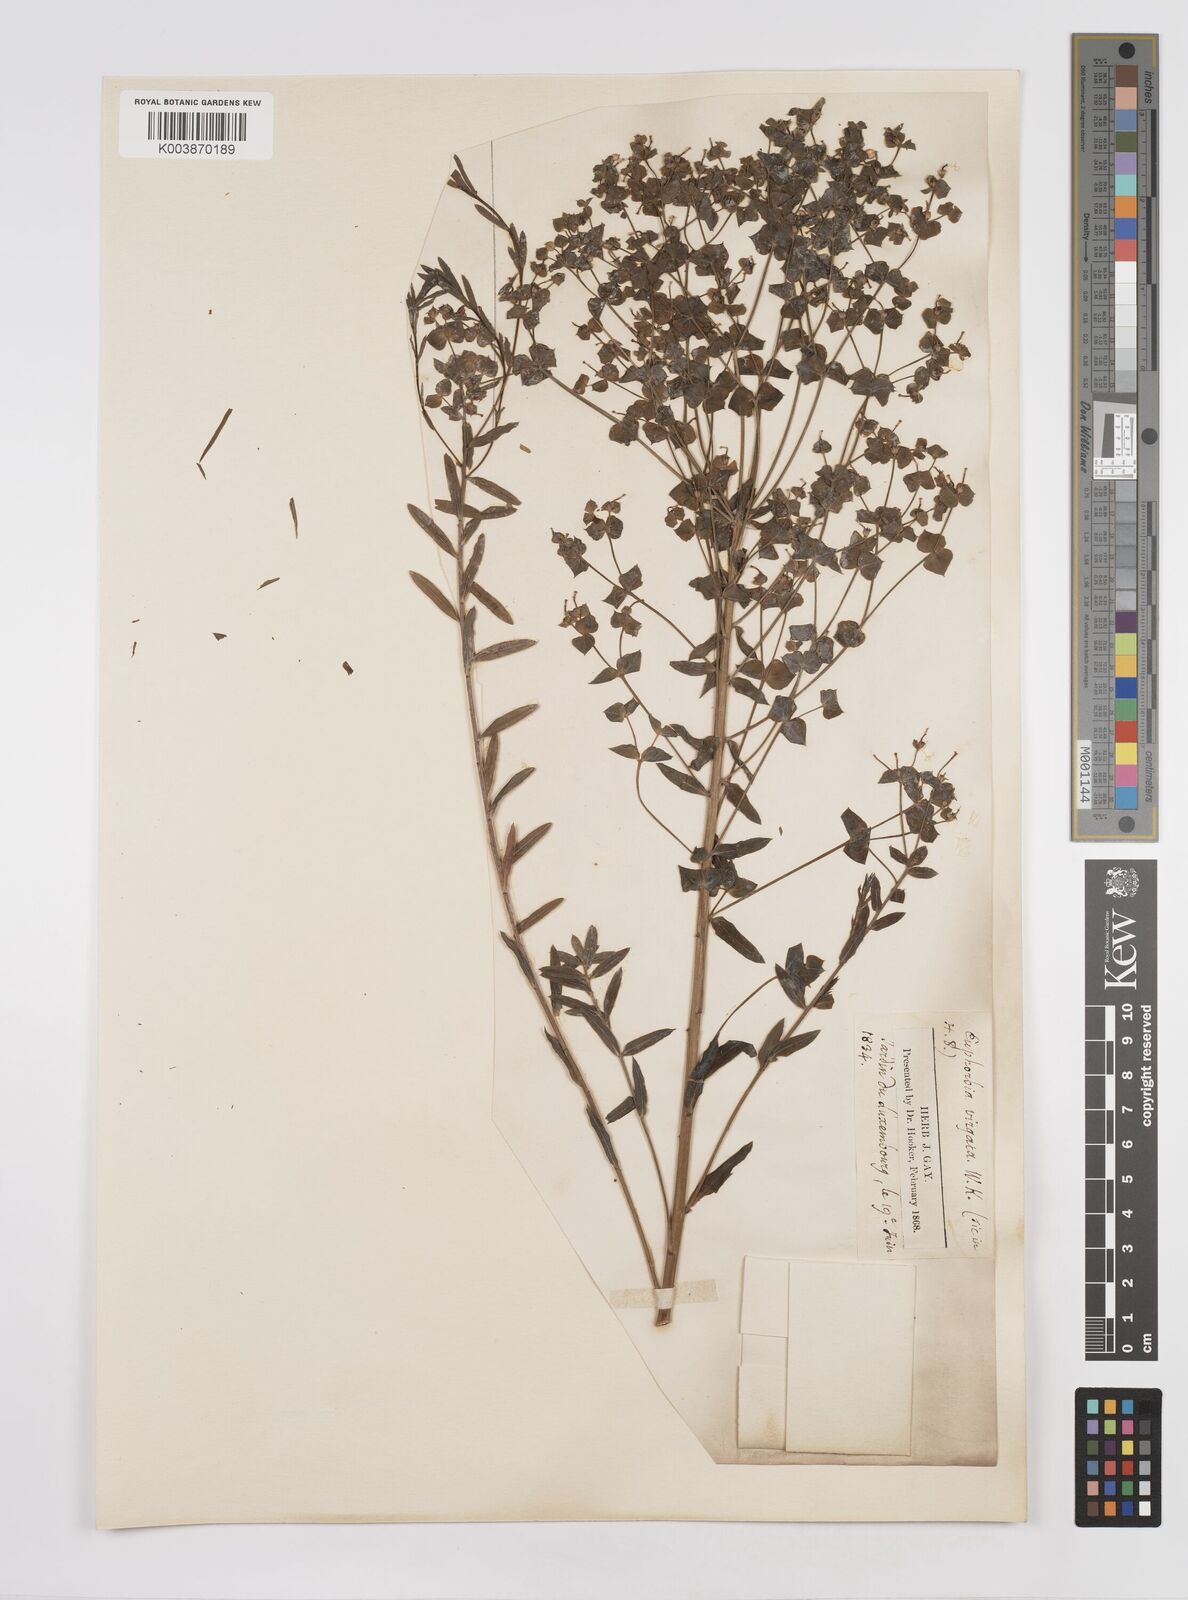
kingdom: Plantae
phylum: Tracheophyta
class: Magnoliopsida
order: Malpighiales
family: Euphorbiaceae
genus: Euphorbia
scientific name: Euphorbia
